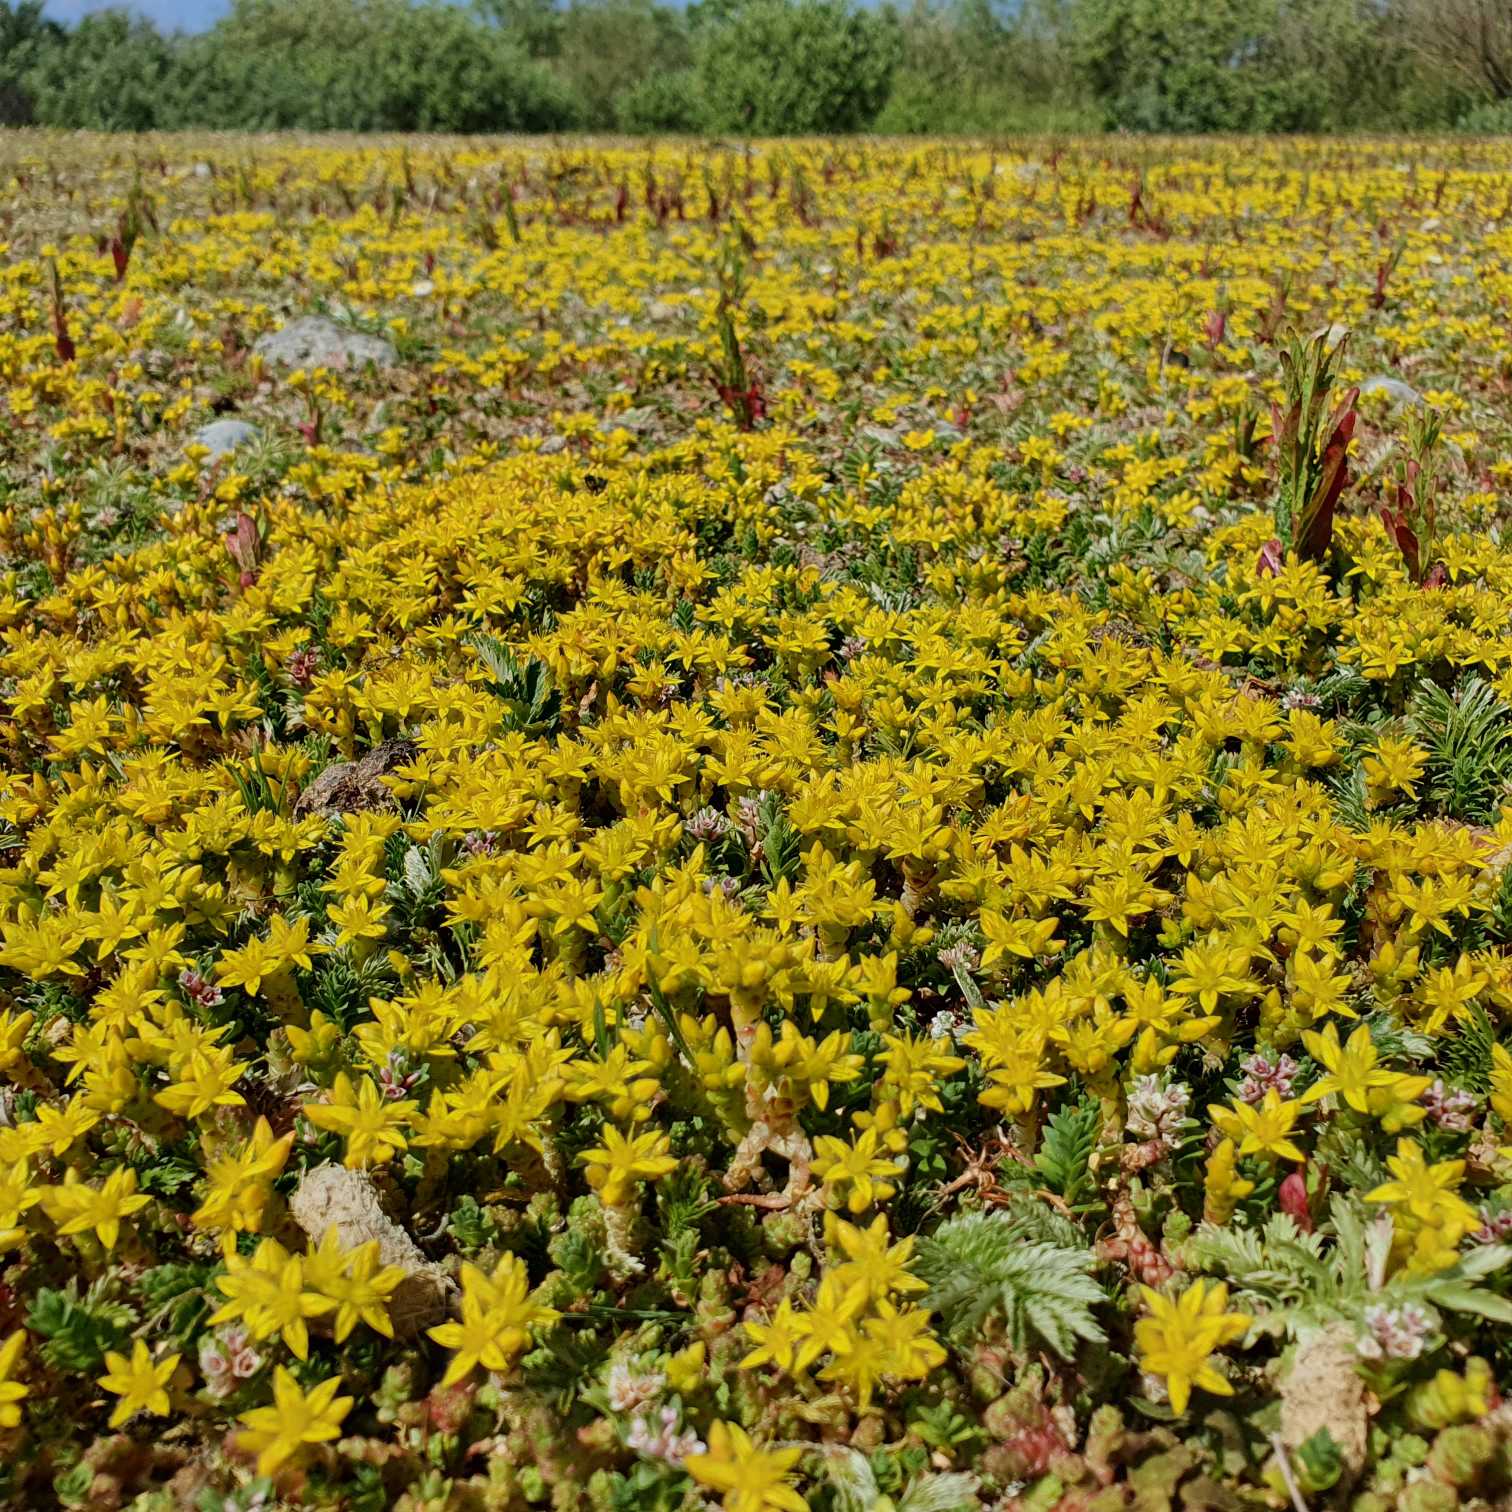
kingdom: Plantae
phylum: Tracheophyta
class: Magnoliopsida
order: Saxifragales
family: Crassulaceae
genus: Sedum
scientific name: Sedum acre
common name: Bidende stenurt
